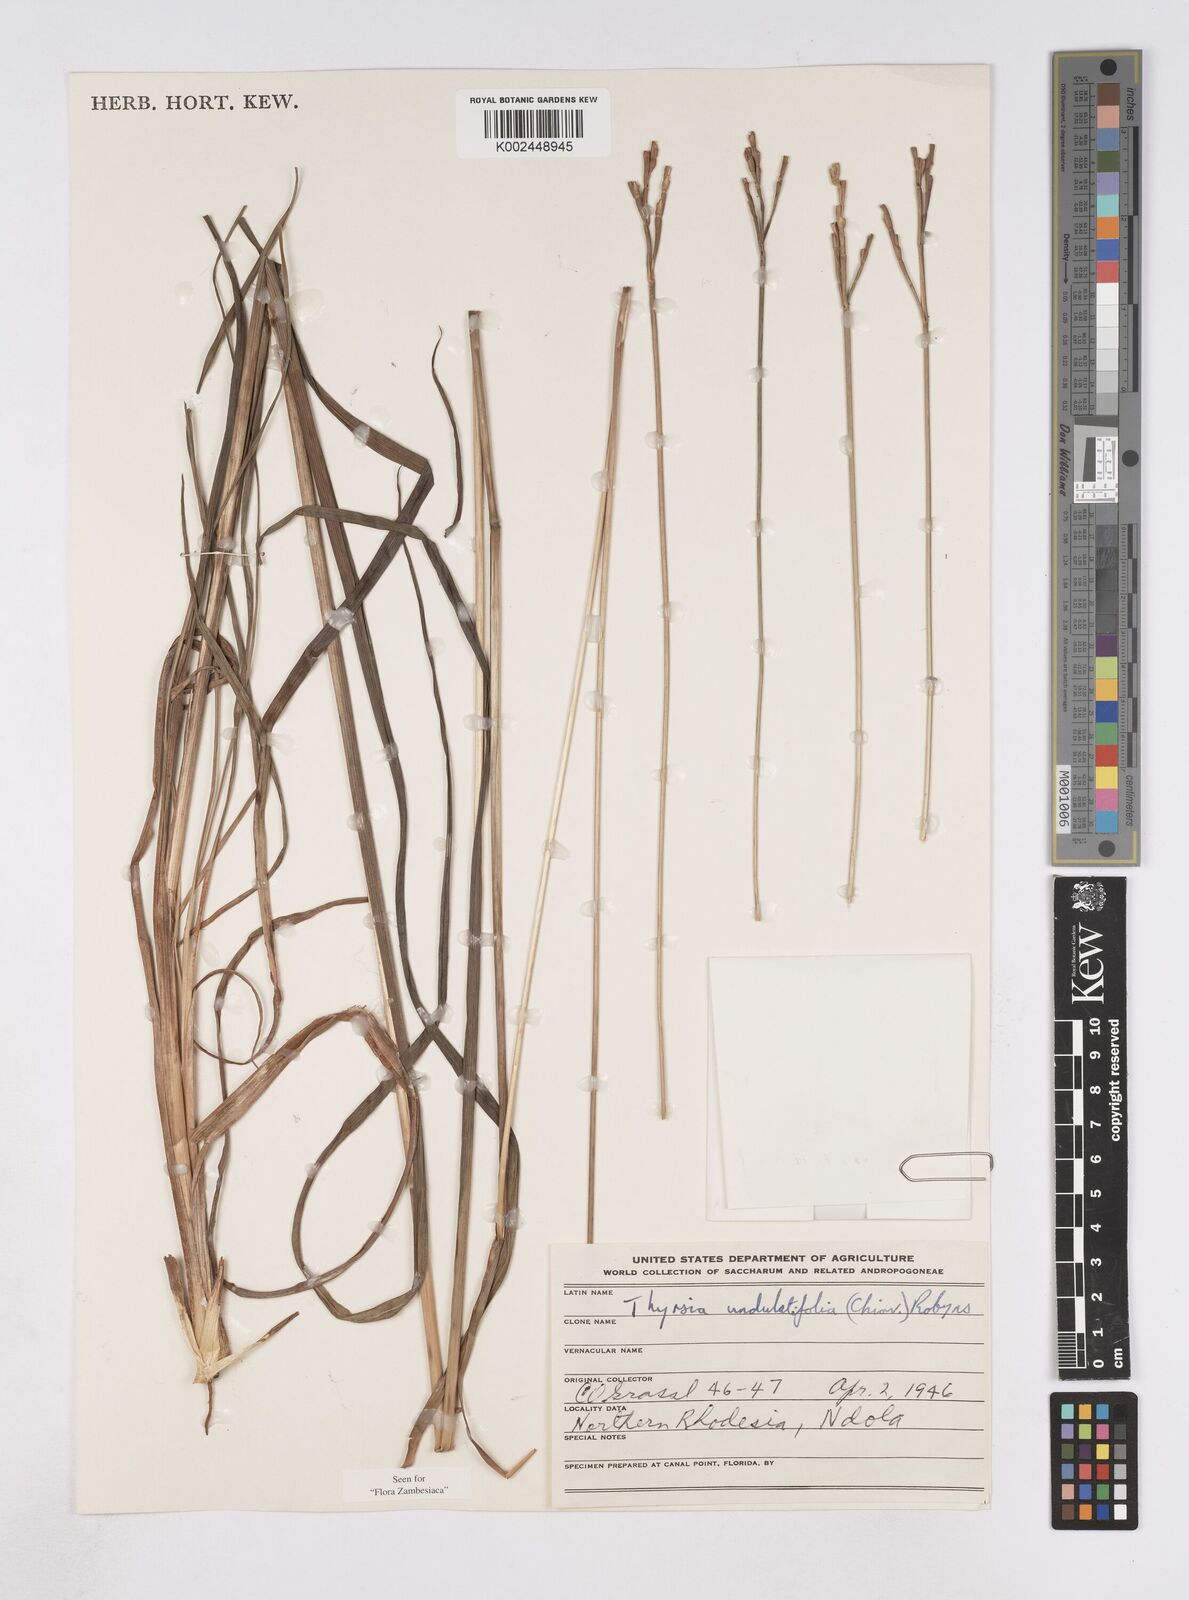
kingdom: Plantae
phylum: Tracheophyta
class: Liliopsida
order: Poales
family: Poaceae
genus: Thyrsia
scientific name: Thyrsia huillensis
